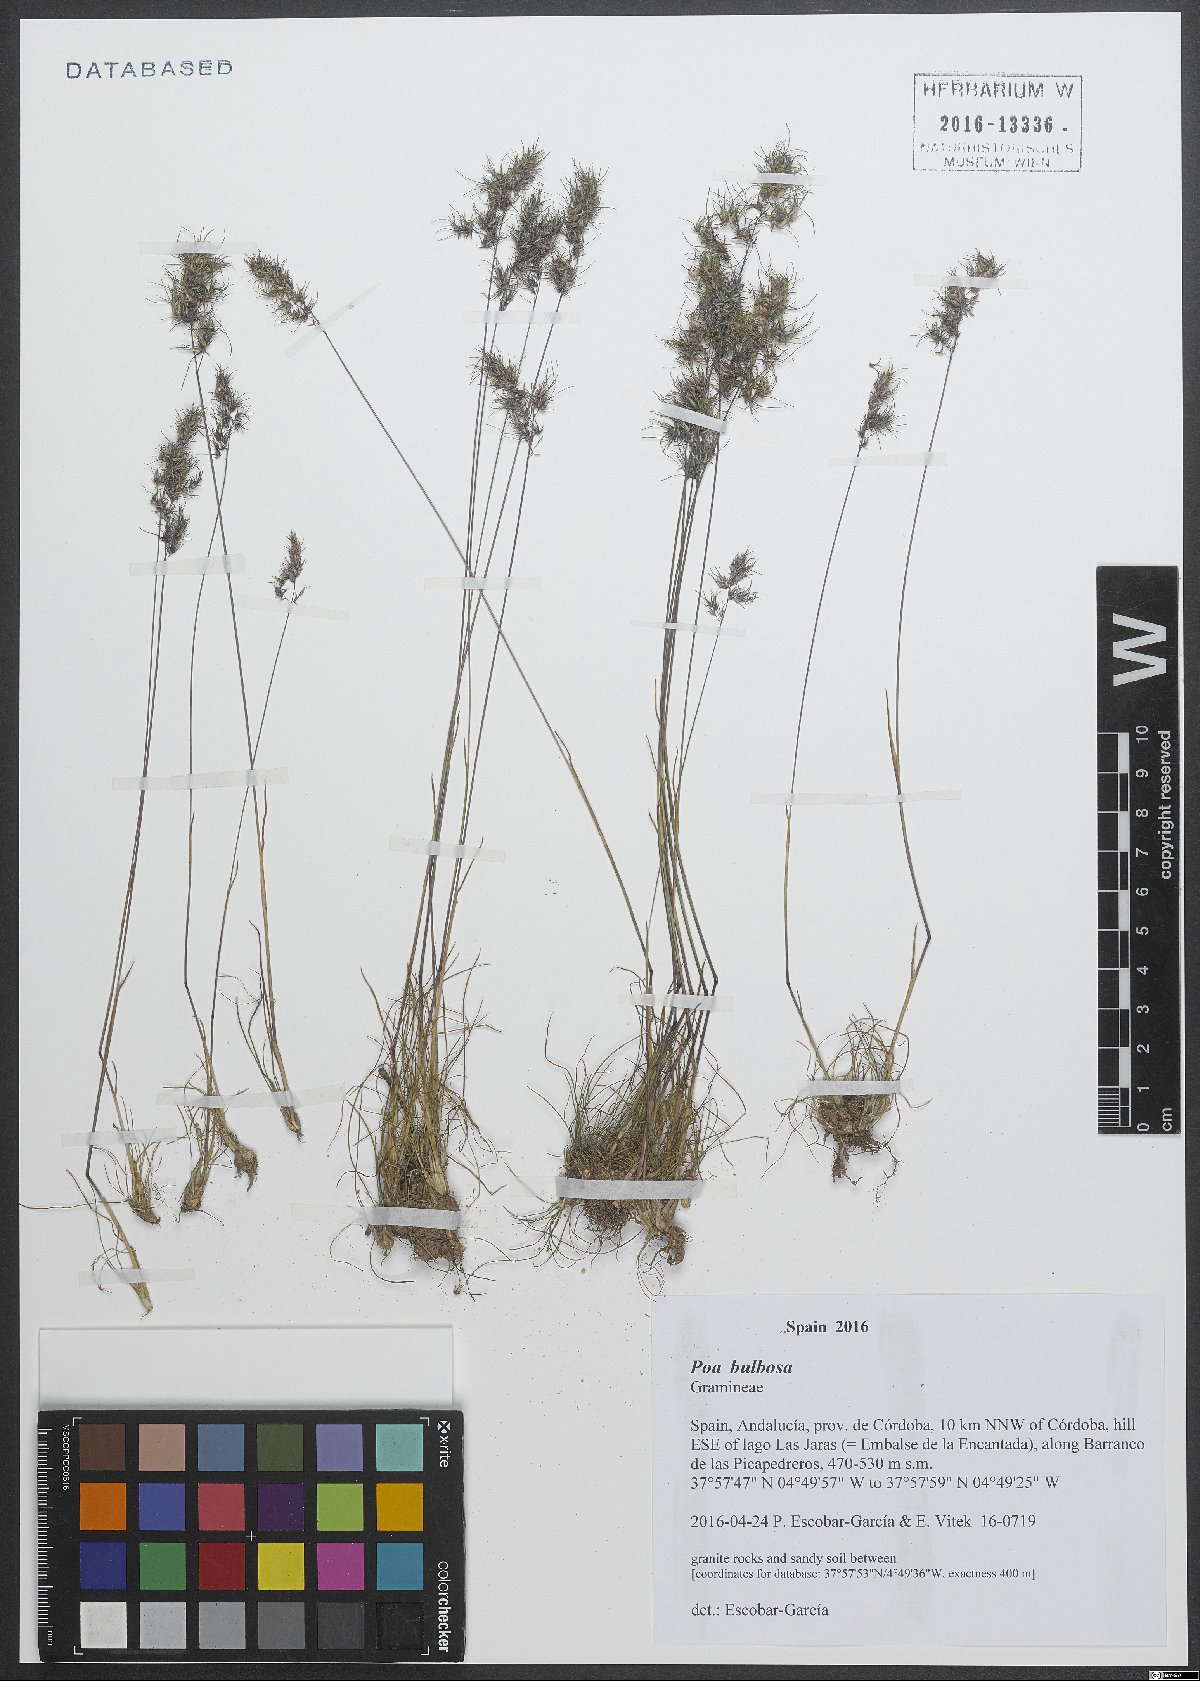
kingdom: Plantae
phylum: Tracheophyta
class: Liliopsida
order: Poales
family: Poaceae
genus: Poa
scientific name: Poa bulbosa
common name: Bulbous bluegrass
